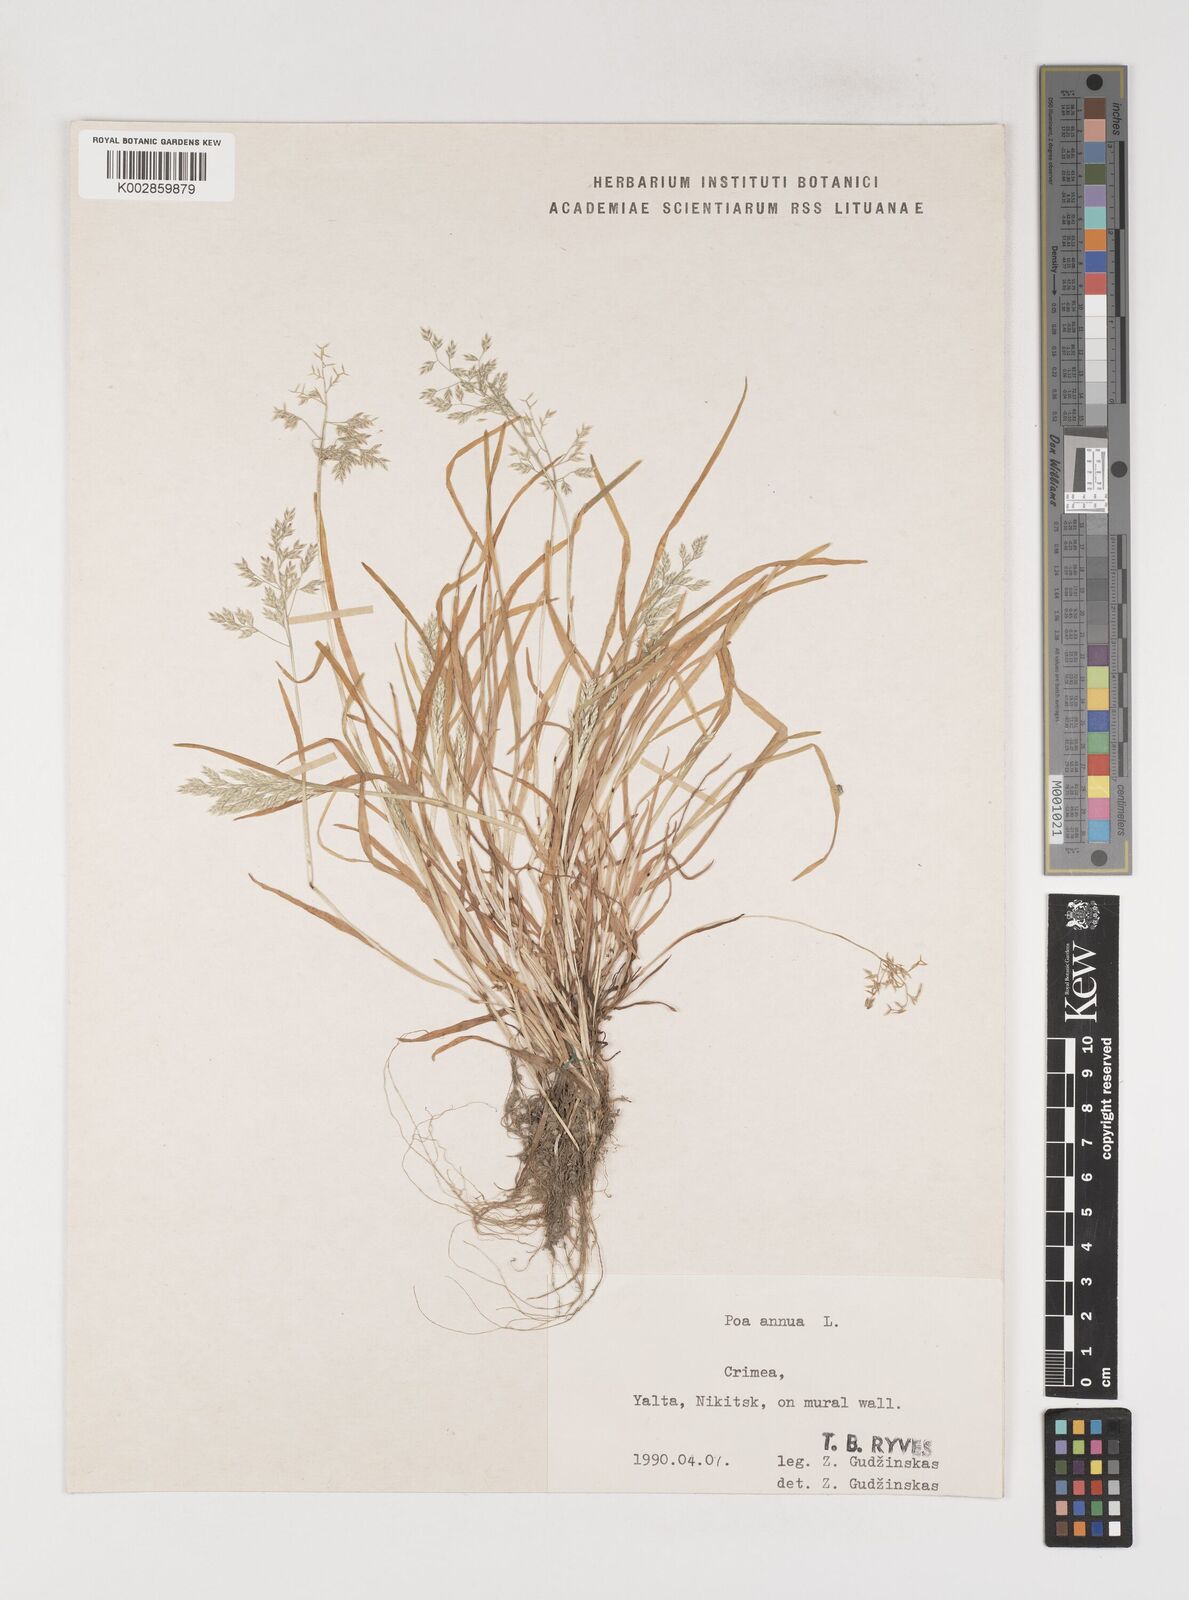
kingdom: Plantae
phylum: Tracheophyta
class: Liliopsida
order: Poales
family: Poaceae
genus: Poa
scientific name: Poa annua
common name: Annual bluegrass
